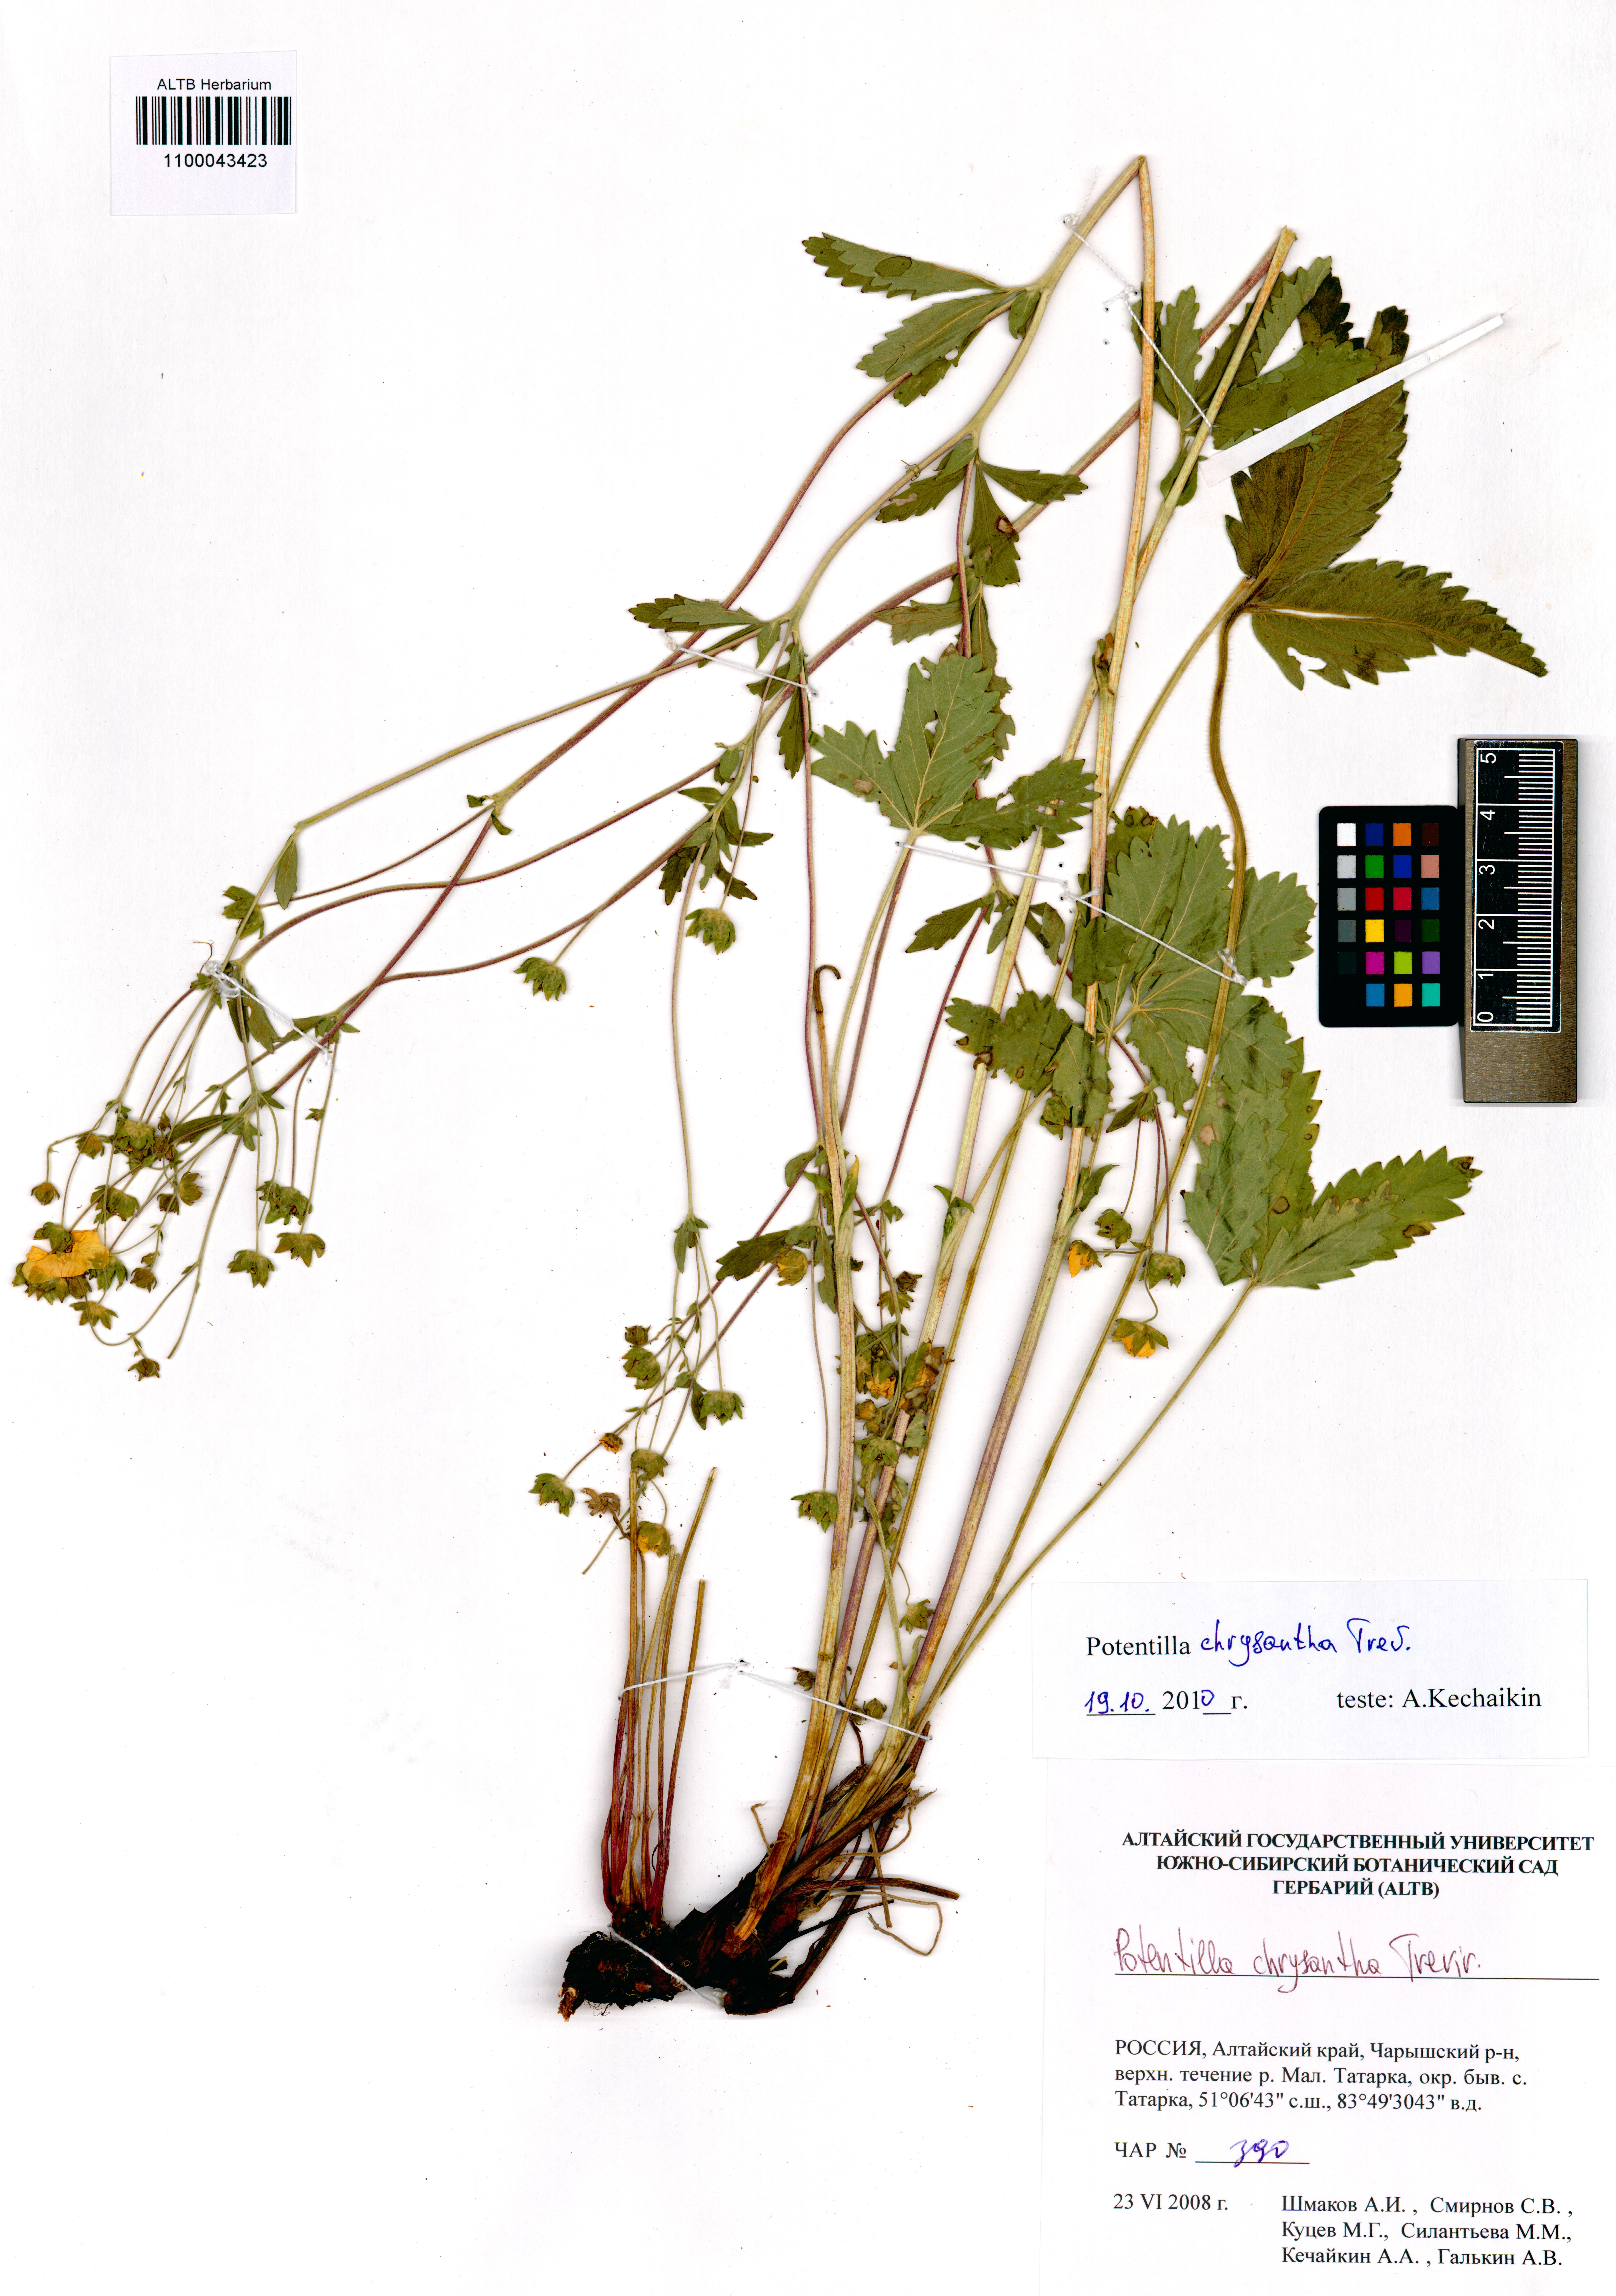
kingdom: Plantae
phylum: Tracheophyta
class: Magnoliopsida
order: Rosales
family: Rosaceae
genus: Potentilla
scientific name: Potentilla chrysantha
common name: Thuringian cinquefoil
